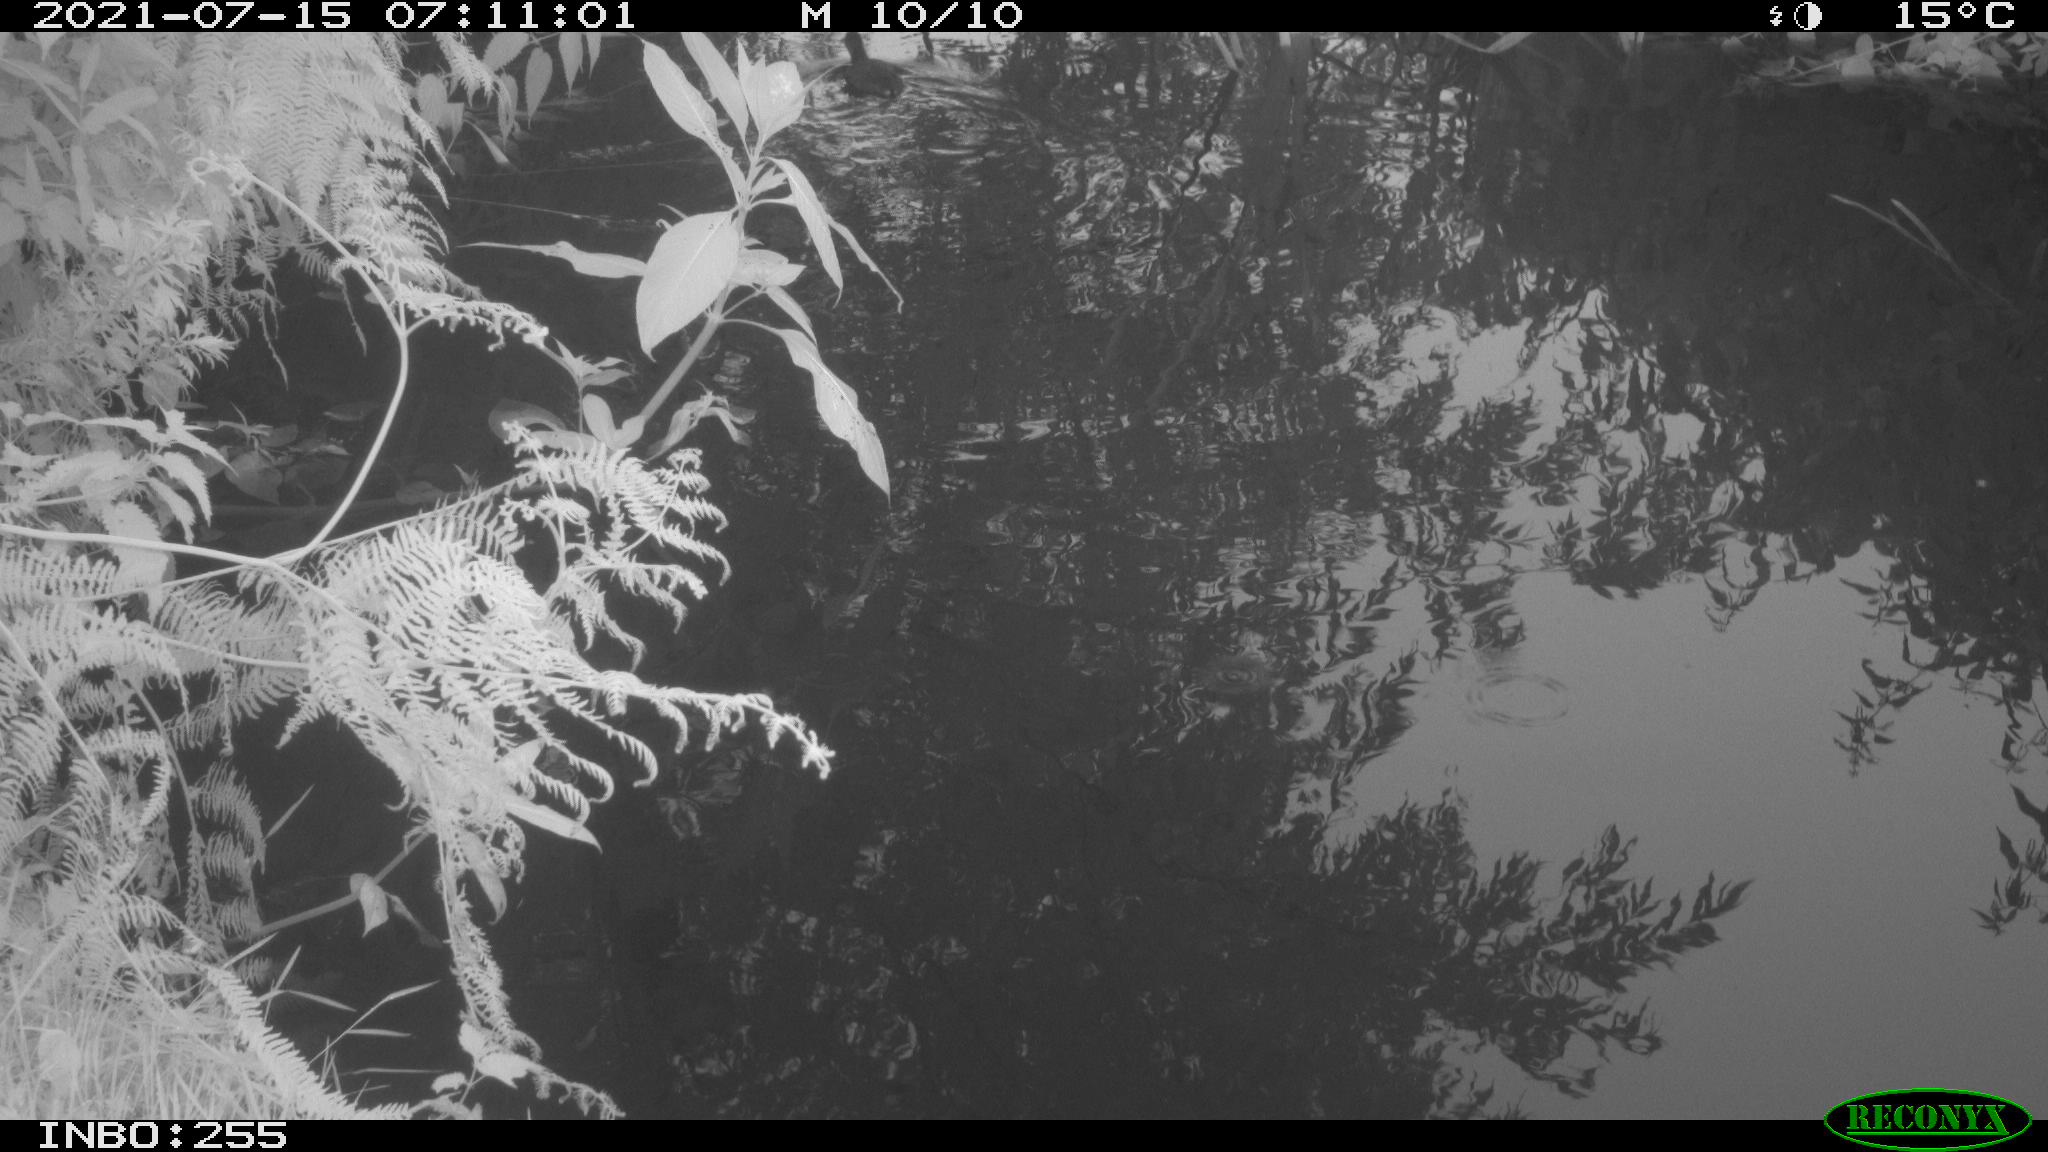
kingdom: Animalia
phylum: Chordata
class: Aves
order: Gruiformes
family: Rallidae
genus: Gallinula
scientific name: Gallinula chloropus
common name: Common moorhen
